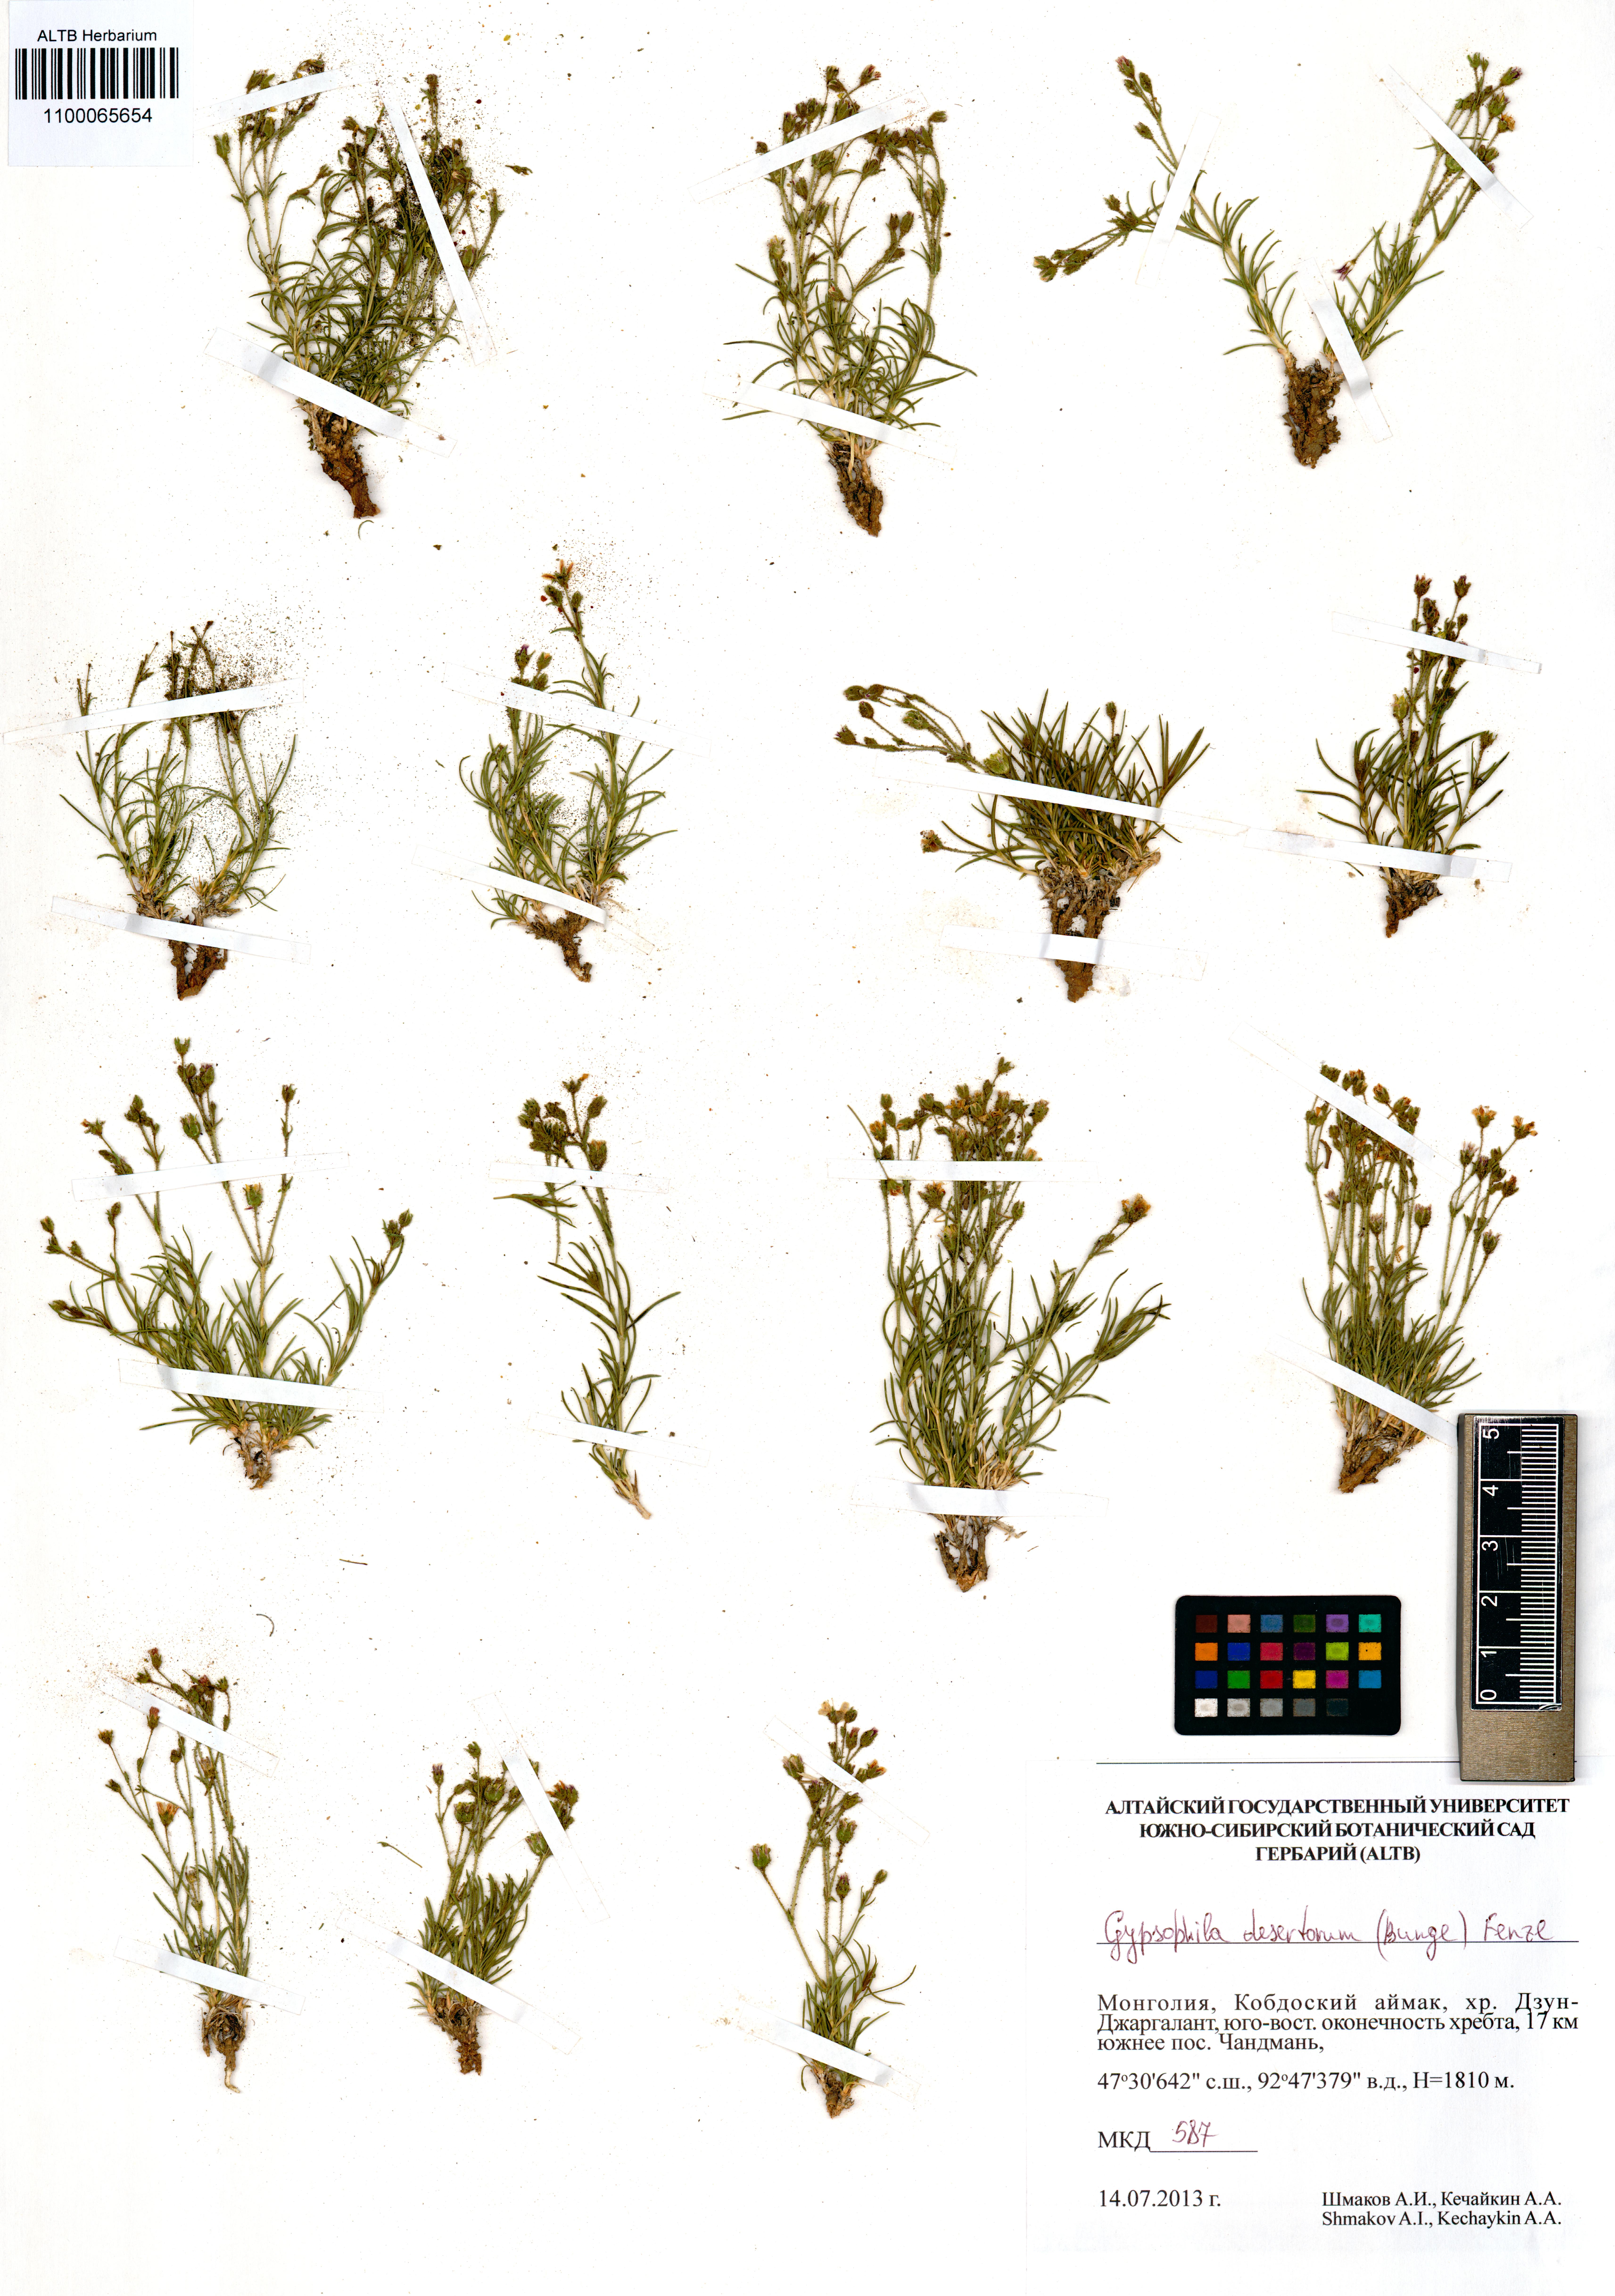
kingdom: Plantae
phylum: Tracheophyta
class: Magnoliopsida
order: Caryophyllales
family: Caryophyllaceae
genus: Heterochroa
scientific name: Heterochroa desertorum
